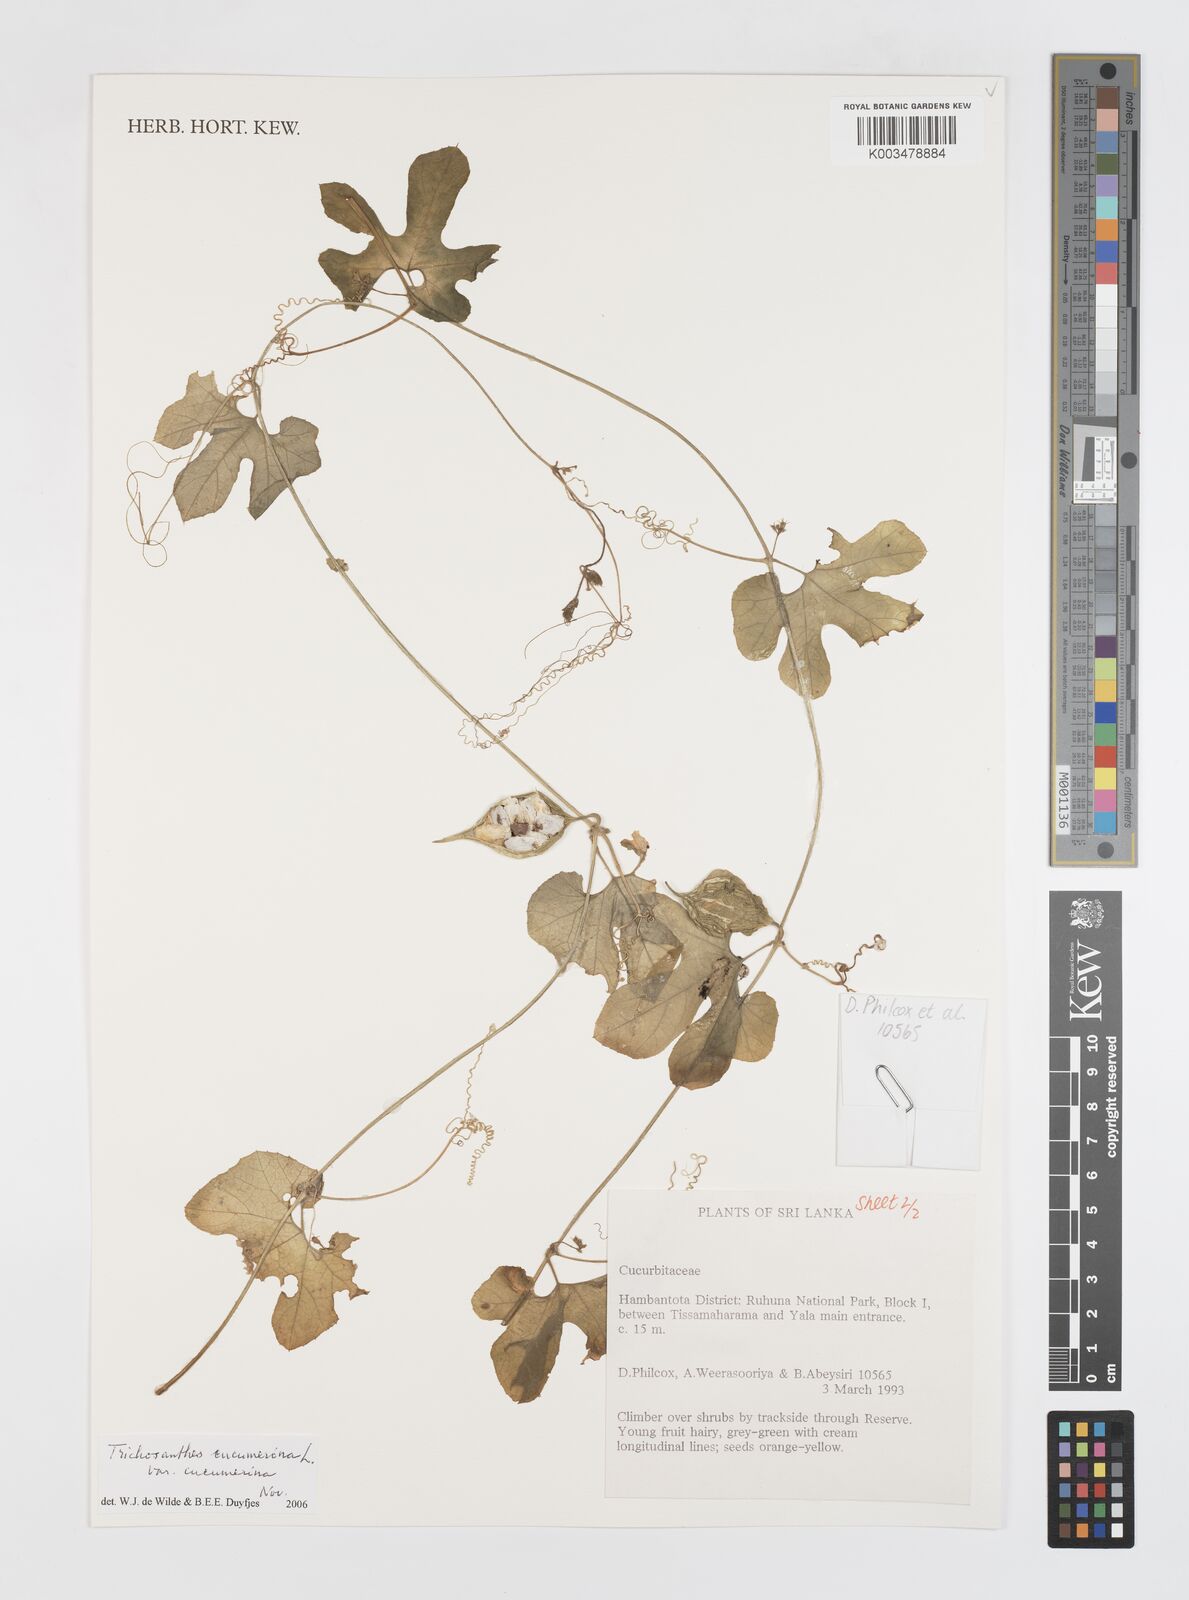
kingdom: Plantae
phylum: Tracheophyta
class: Magnoliopsida
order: Cucurbitales
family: Cucurbitaceae
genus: Trichosanthes
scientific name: Trichosanthes cucumerina
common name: Snakegourd
